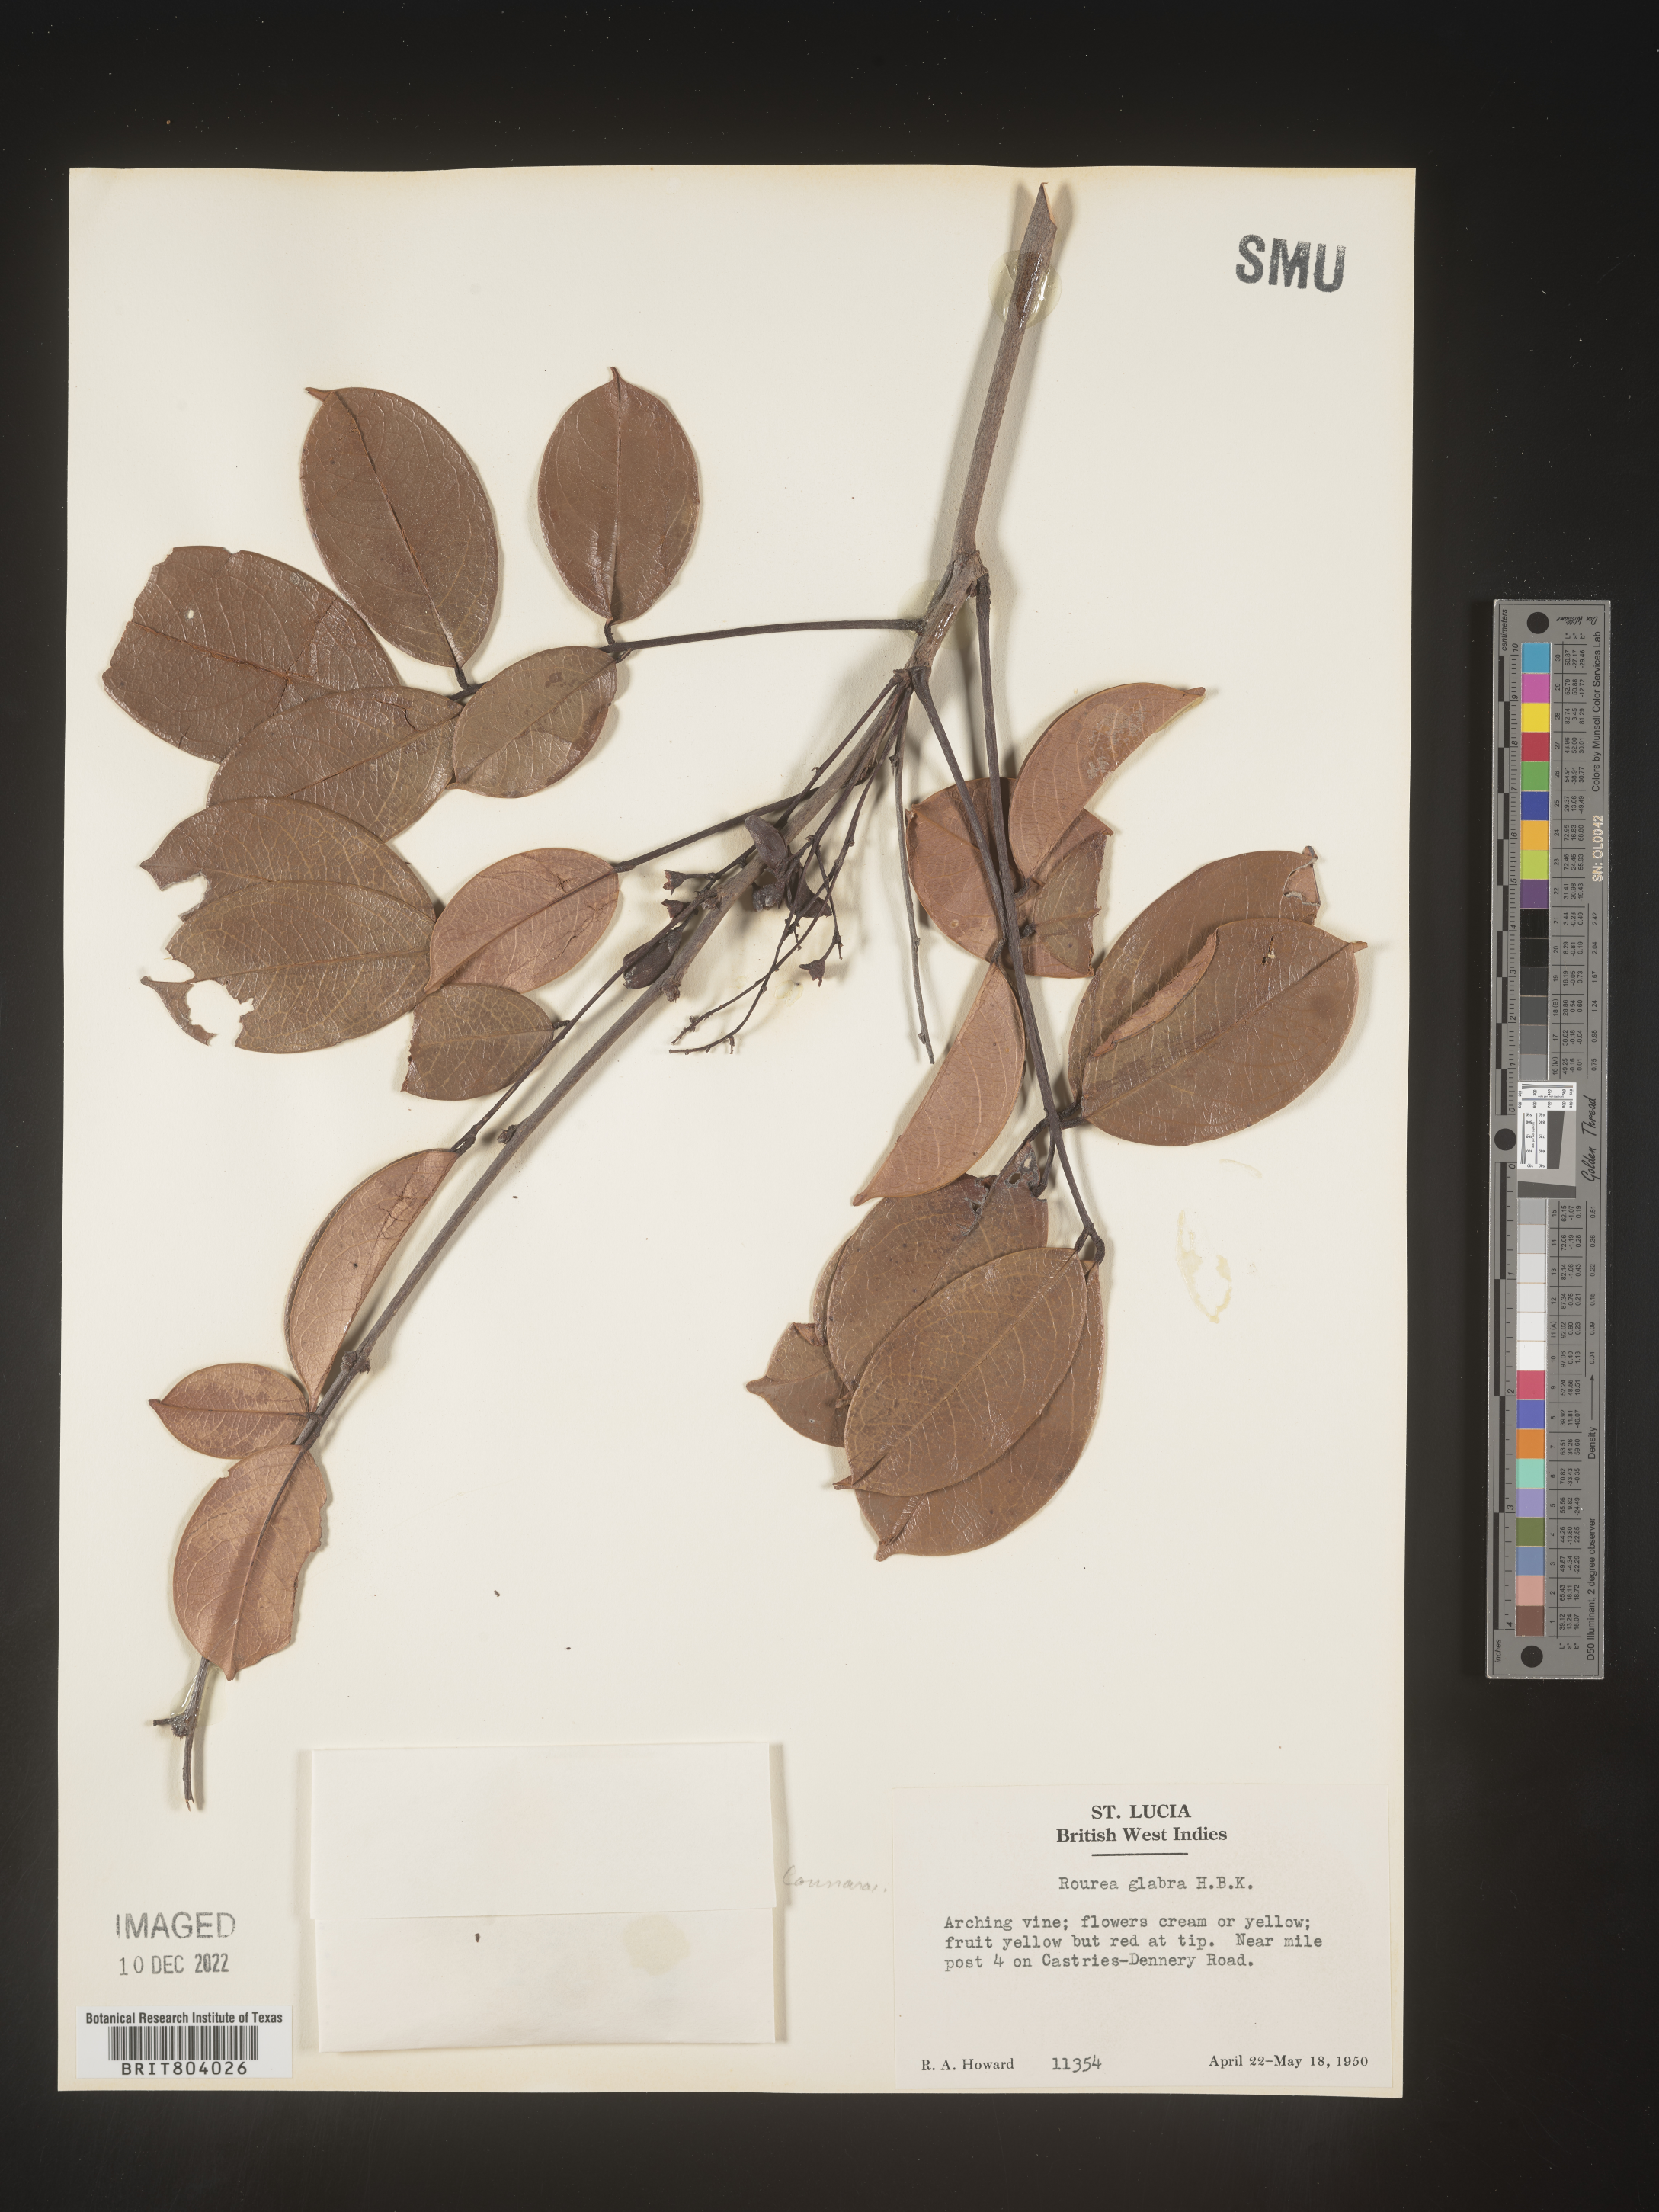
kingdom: Plantae
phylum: Tracheophyta
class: Magnoliopsida
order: Oxalidales
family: Connaraceae
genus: Rourea
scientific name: Rourea
